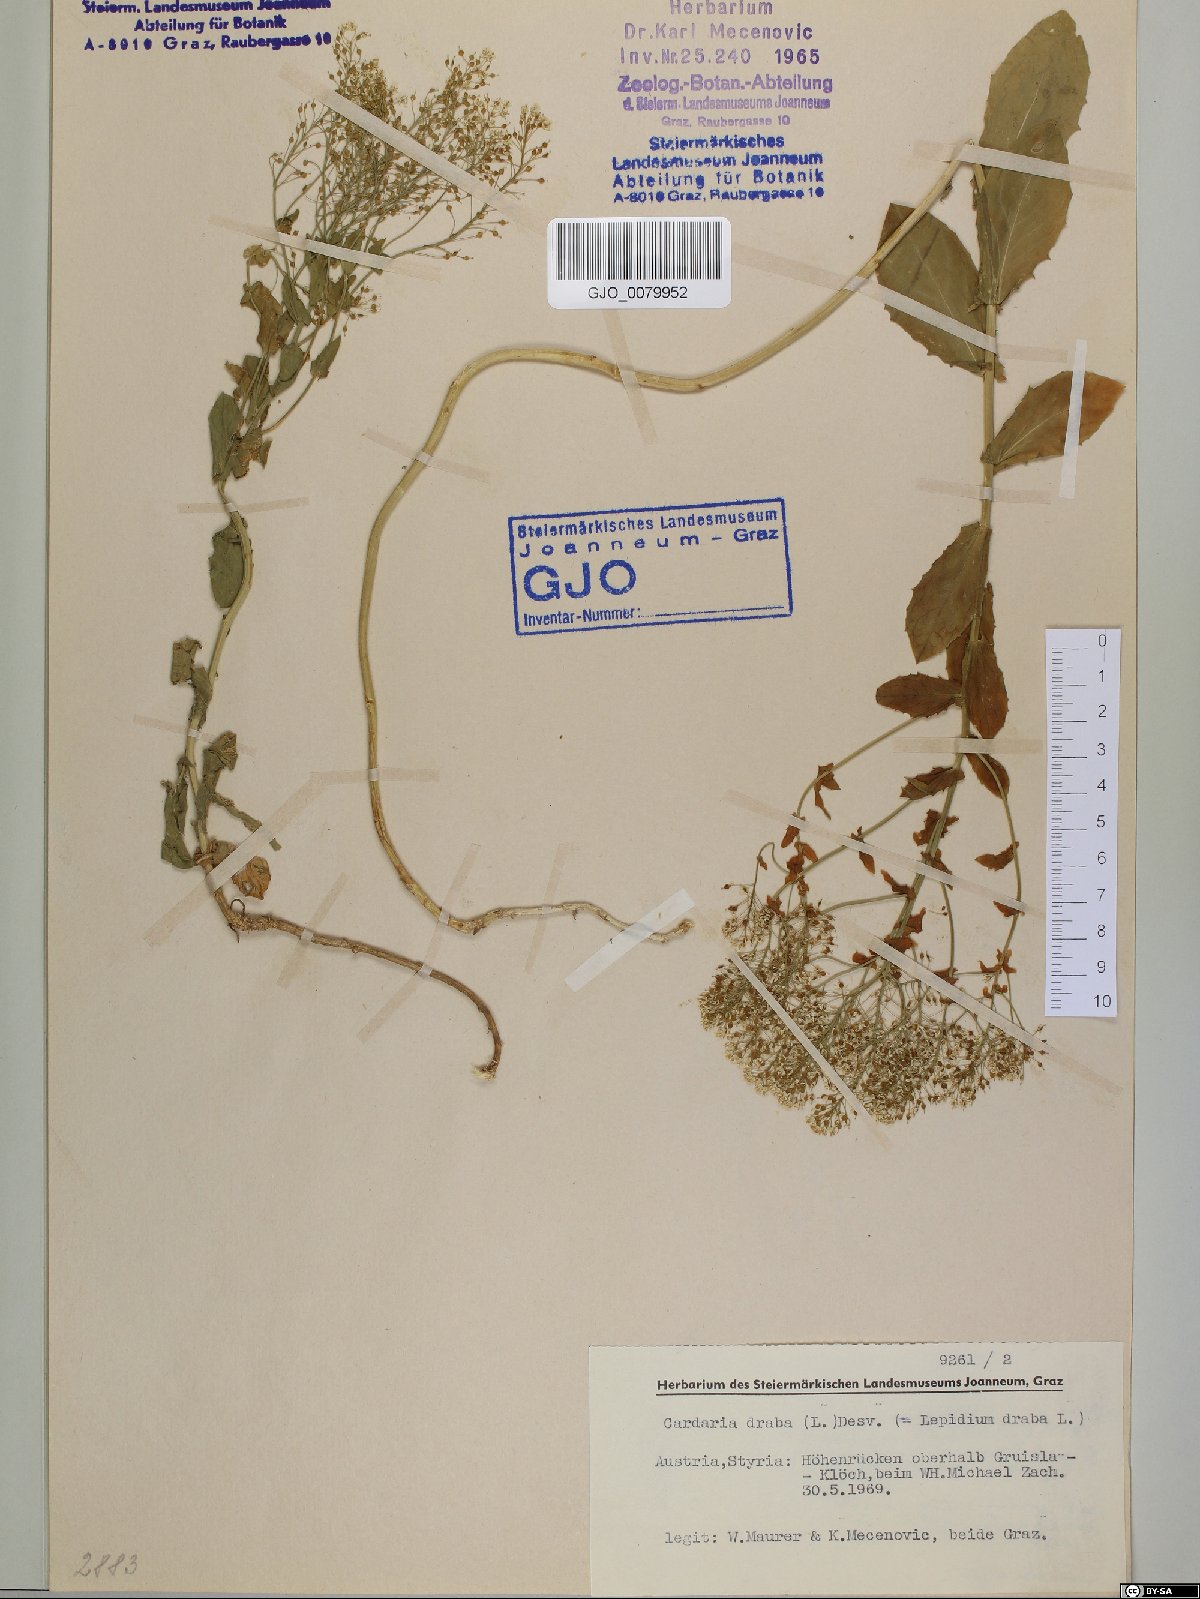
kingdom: Plantae
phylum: Tracheophyta
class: Magnoliopsida
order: Brassicales
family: Brassicaceae
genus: Lepidium
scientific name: Lepidium draba
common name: Hoary cress
